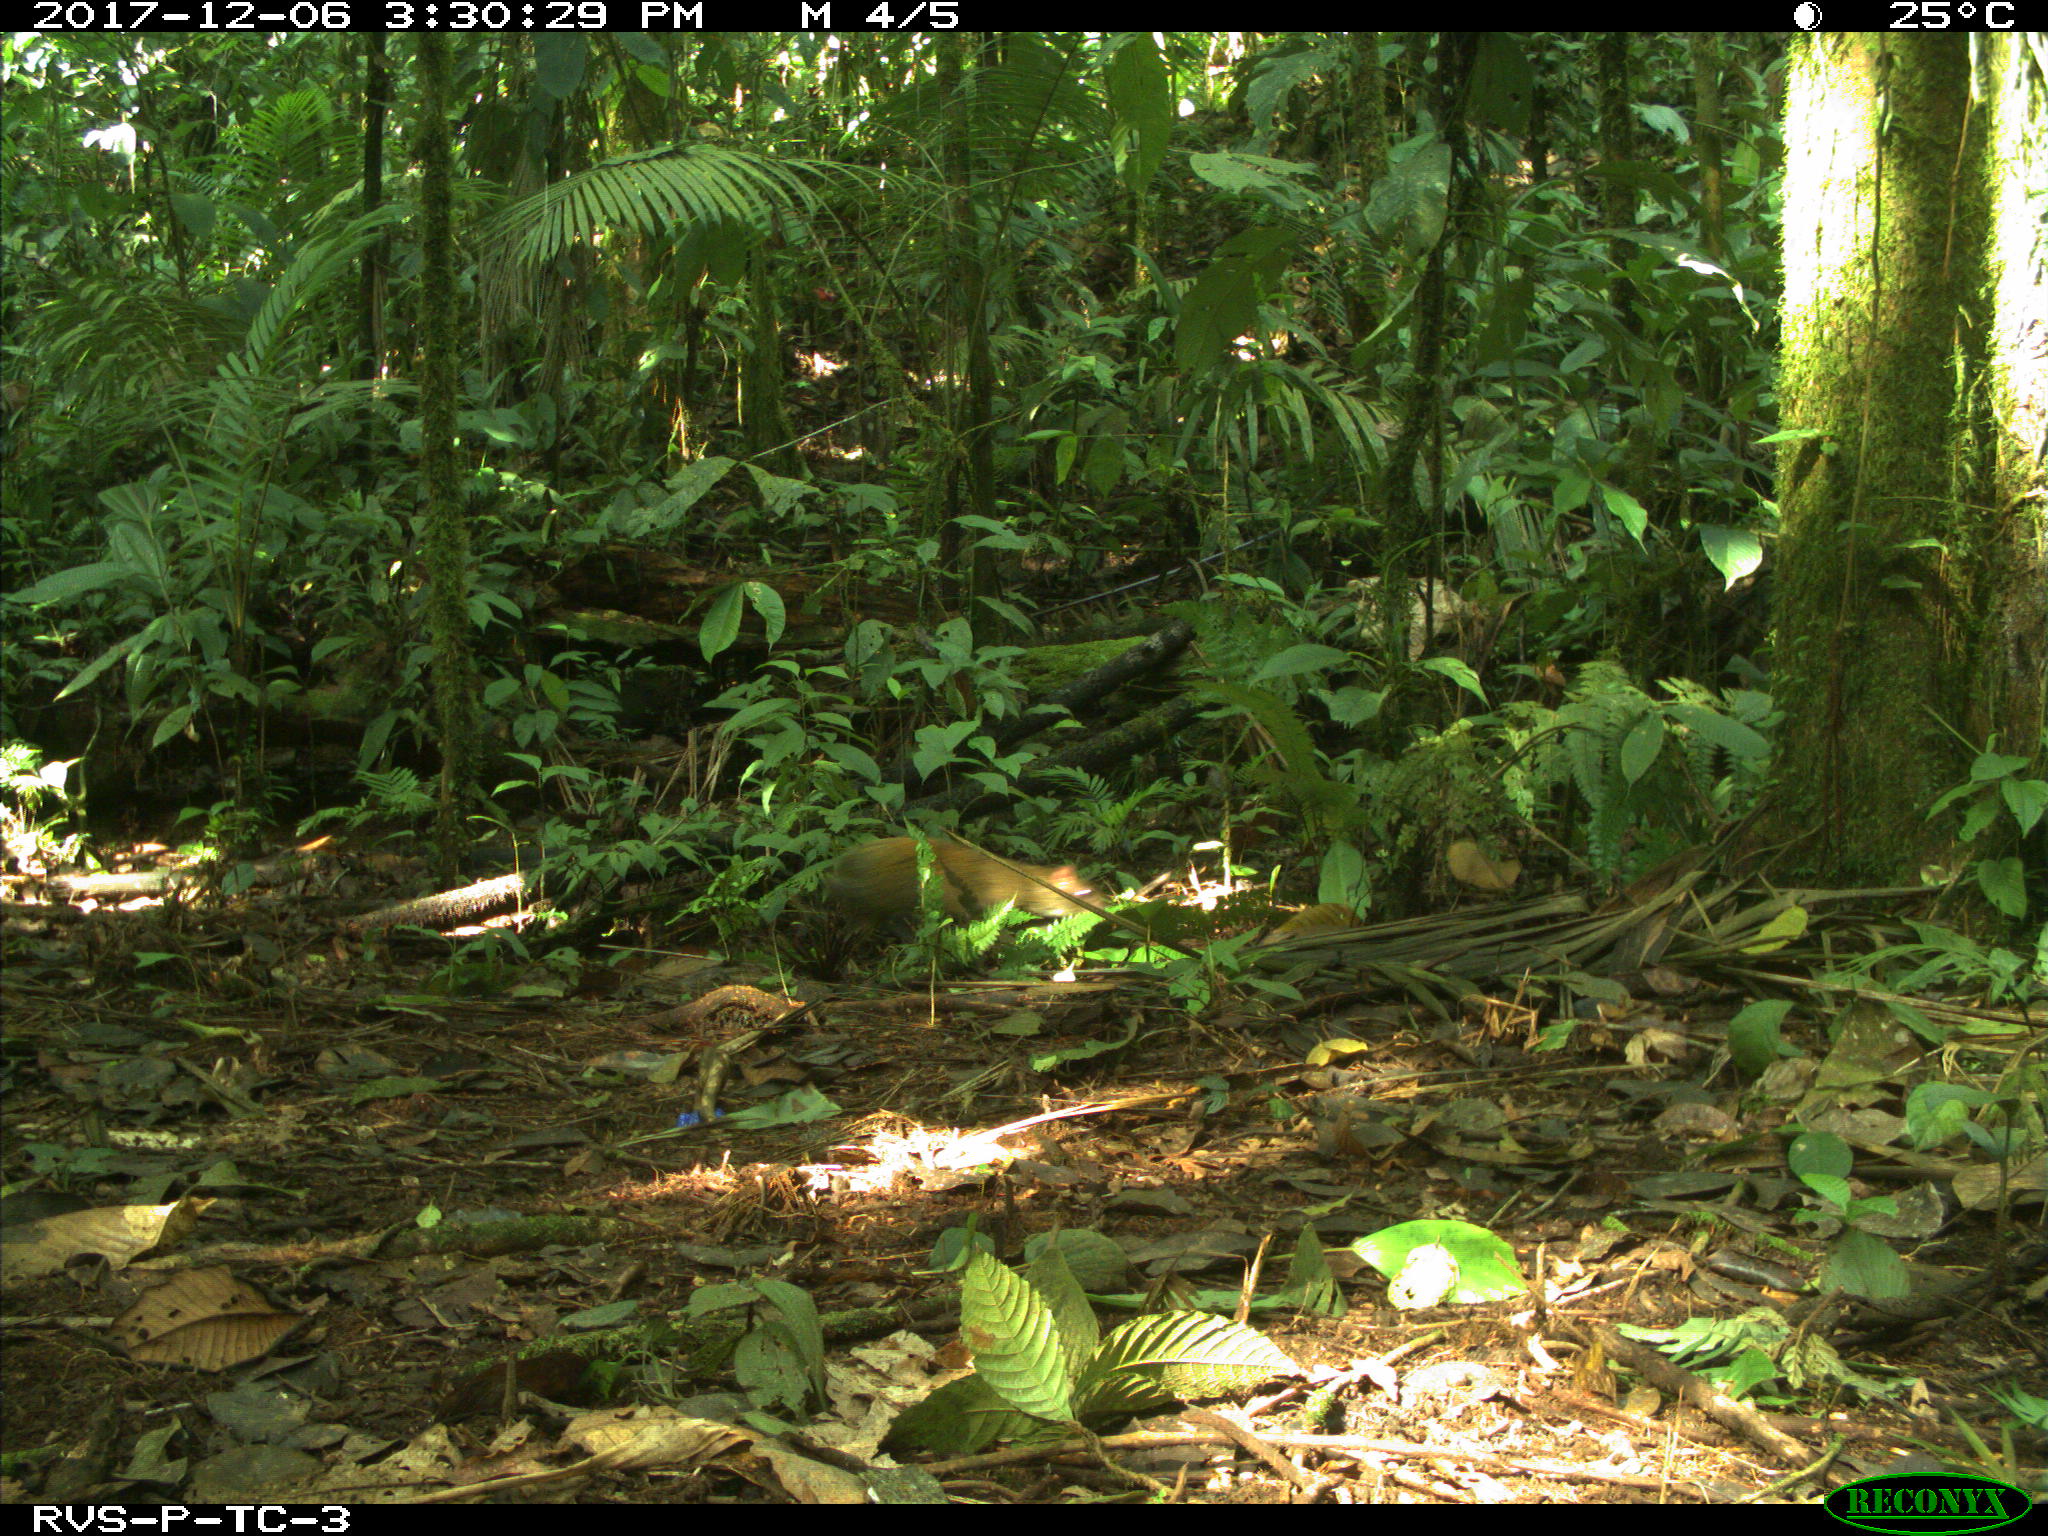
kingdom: Animalia
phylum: Chordata
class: Mammalia
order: Rodentia
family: Dasyproctidae
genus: Dasyprocta
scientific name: Dasyprocta punctata
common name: Central american agouti
